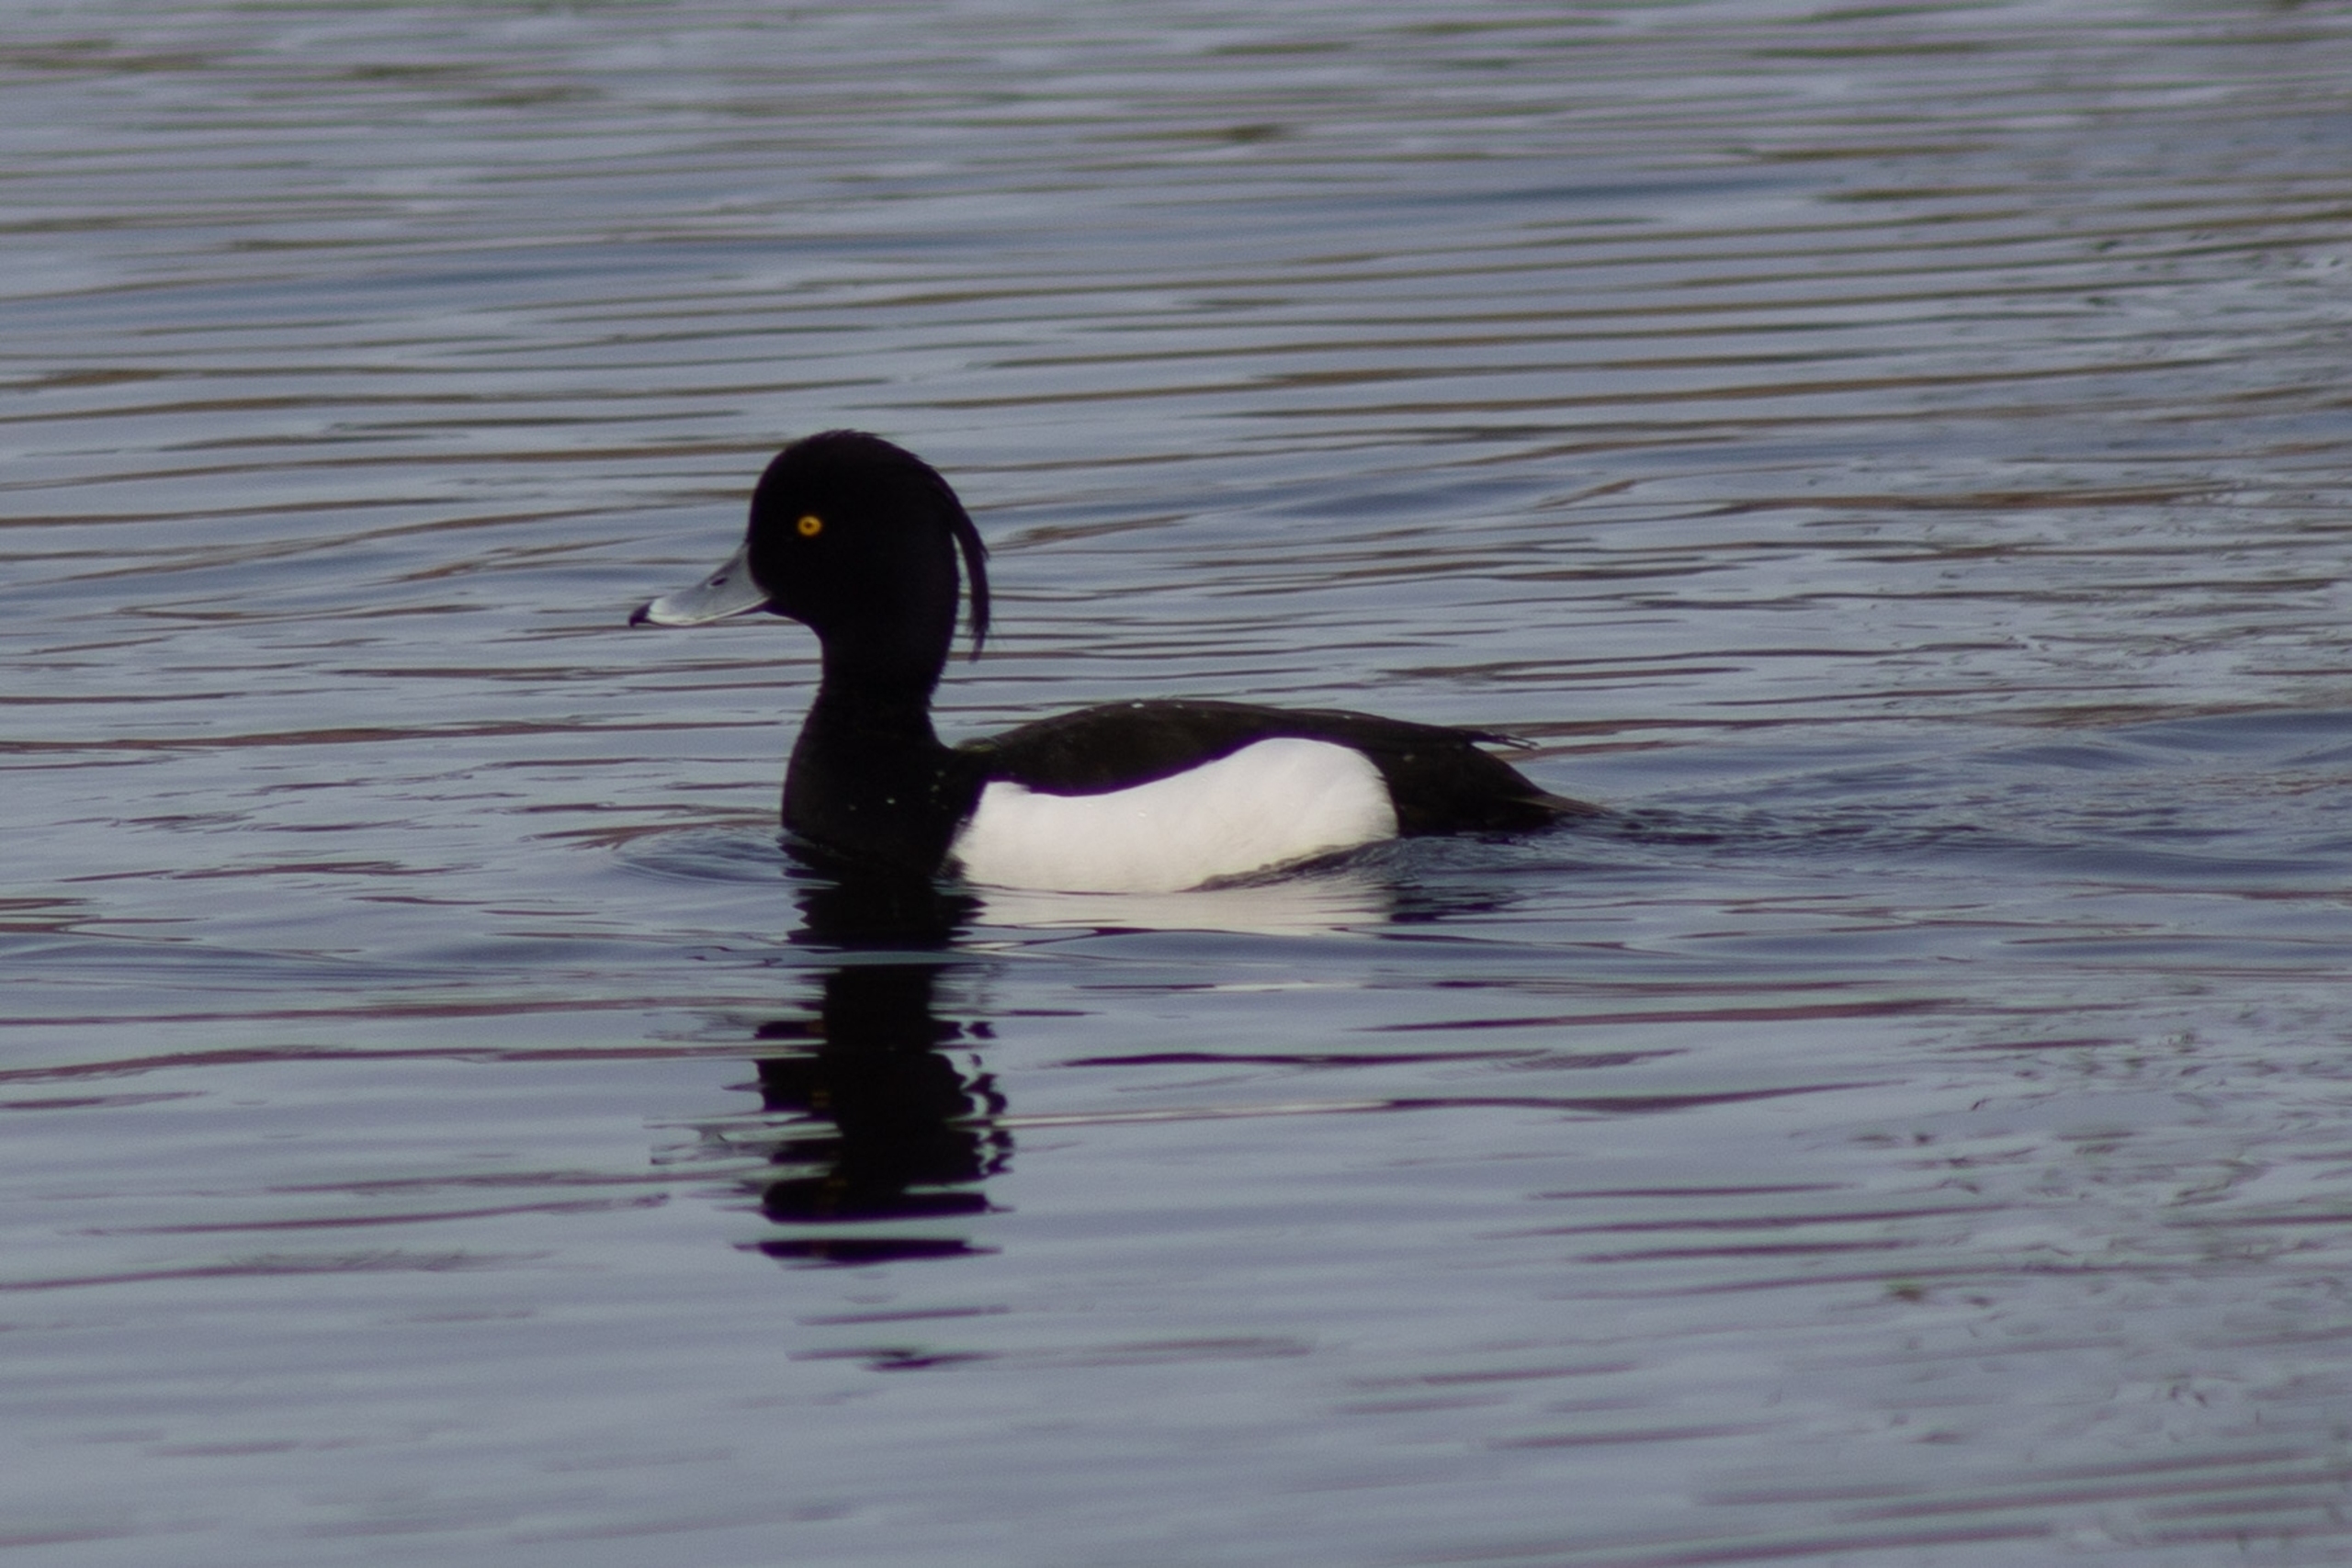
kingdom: Animalia
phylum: Chordata
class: Aves
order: Anseriformes
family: Anatidae
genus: Aythya
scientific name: Aythya fuligula
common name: Troldand
